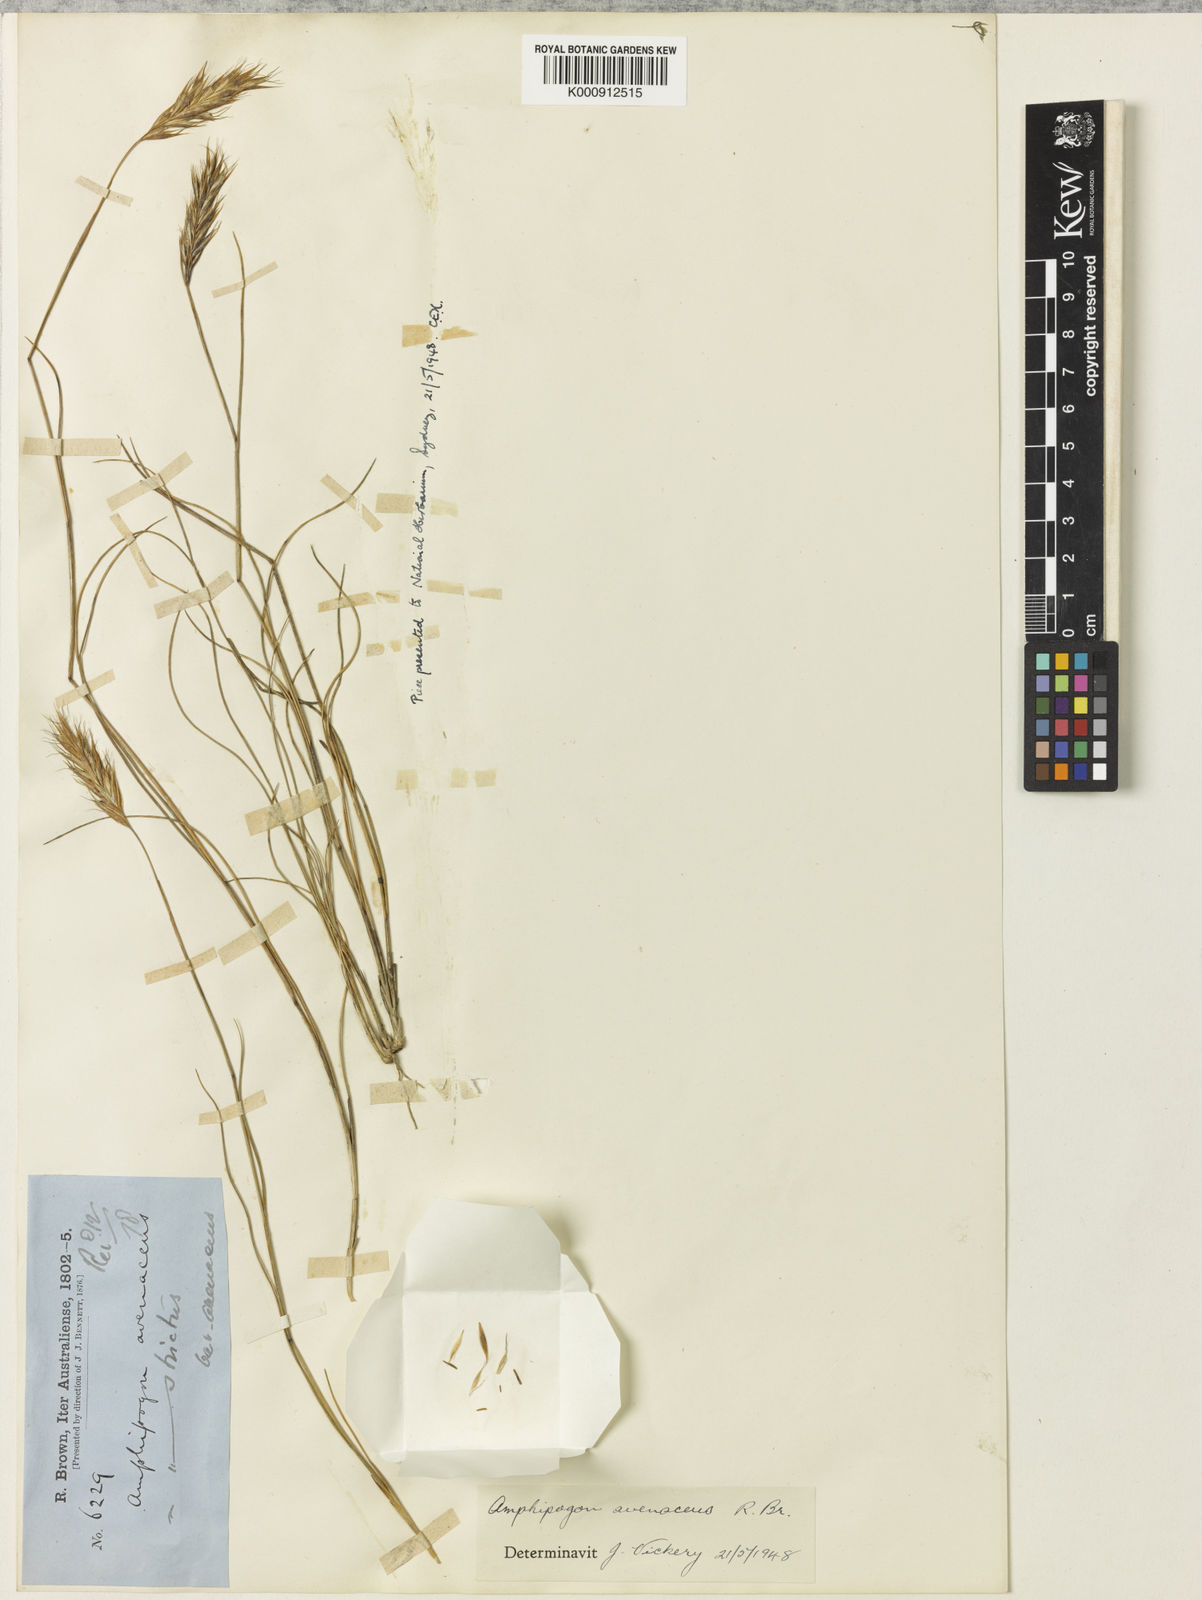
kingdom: Plantae
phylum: Tracheophyta
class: Liliopsida
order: Poales
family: Poaceae
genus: Amphipogon
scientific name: Amphipogon avenaceus
